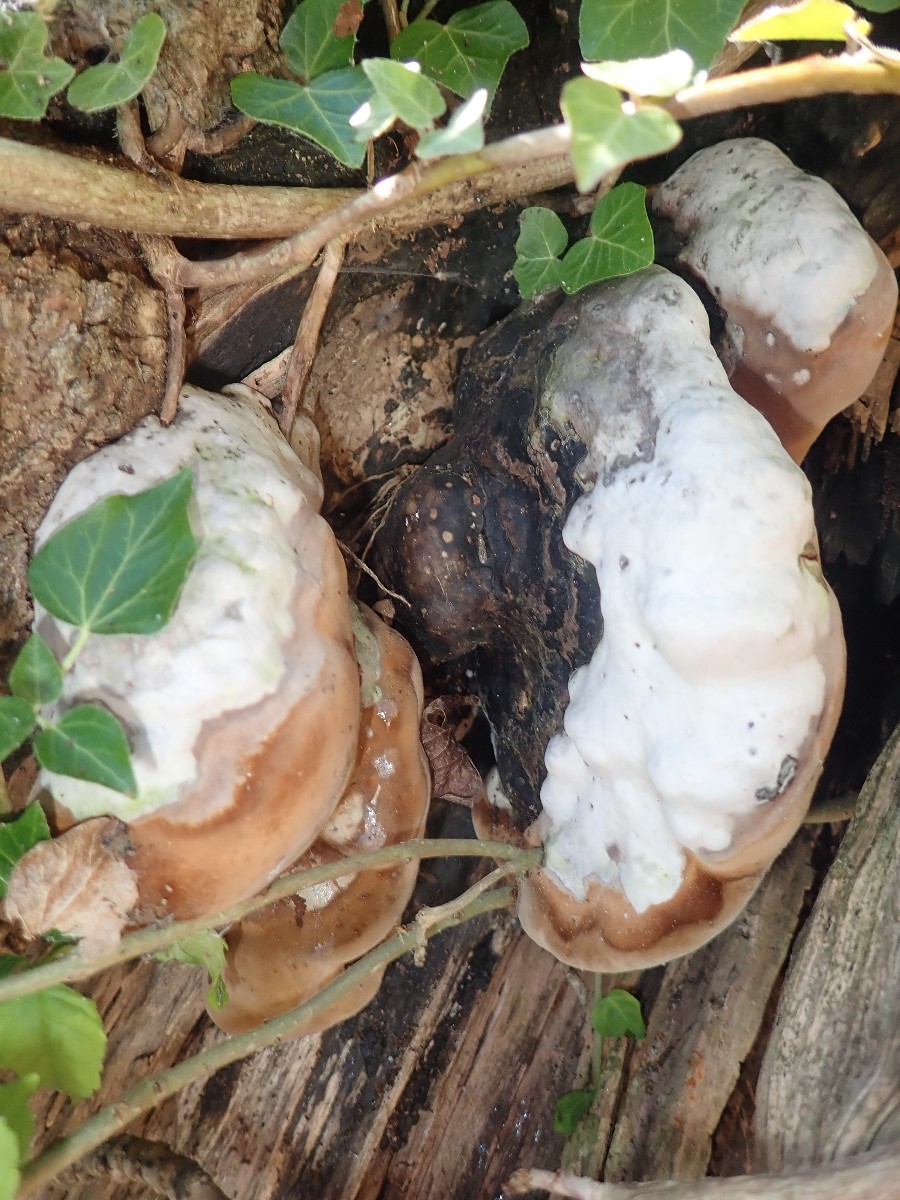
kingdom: Fungi
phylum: Basidiomycota
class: Agaricomycetes
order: Hymenochaetales
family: Hymenochaetaceae
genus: Phellinus
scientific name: Phellinus populicola
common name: poppel-ildporesvamp
